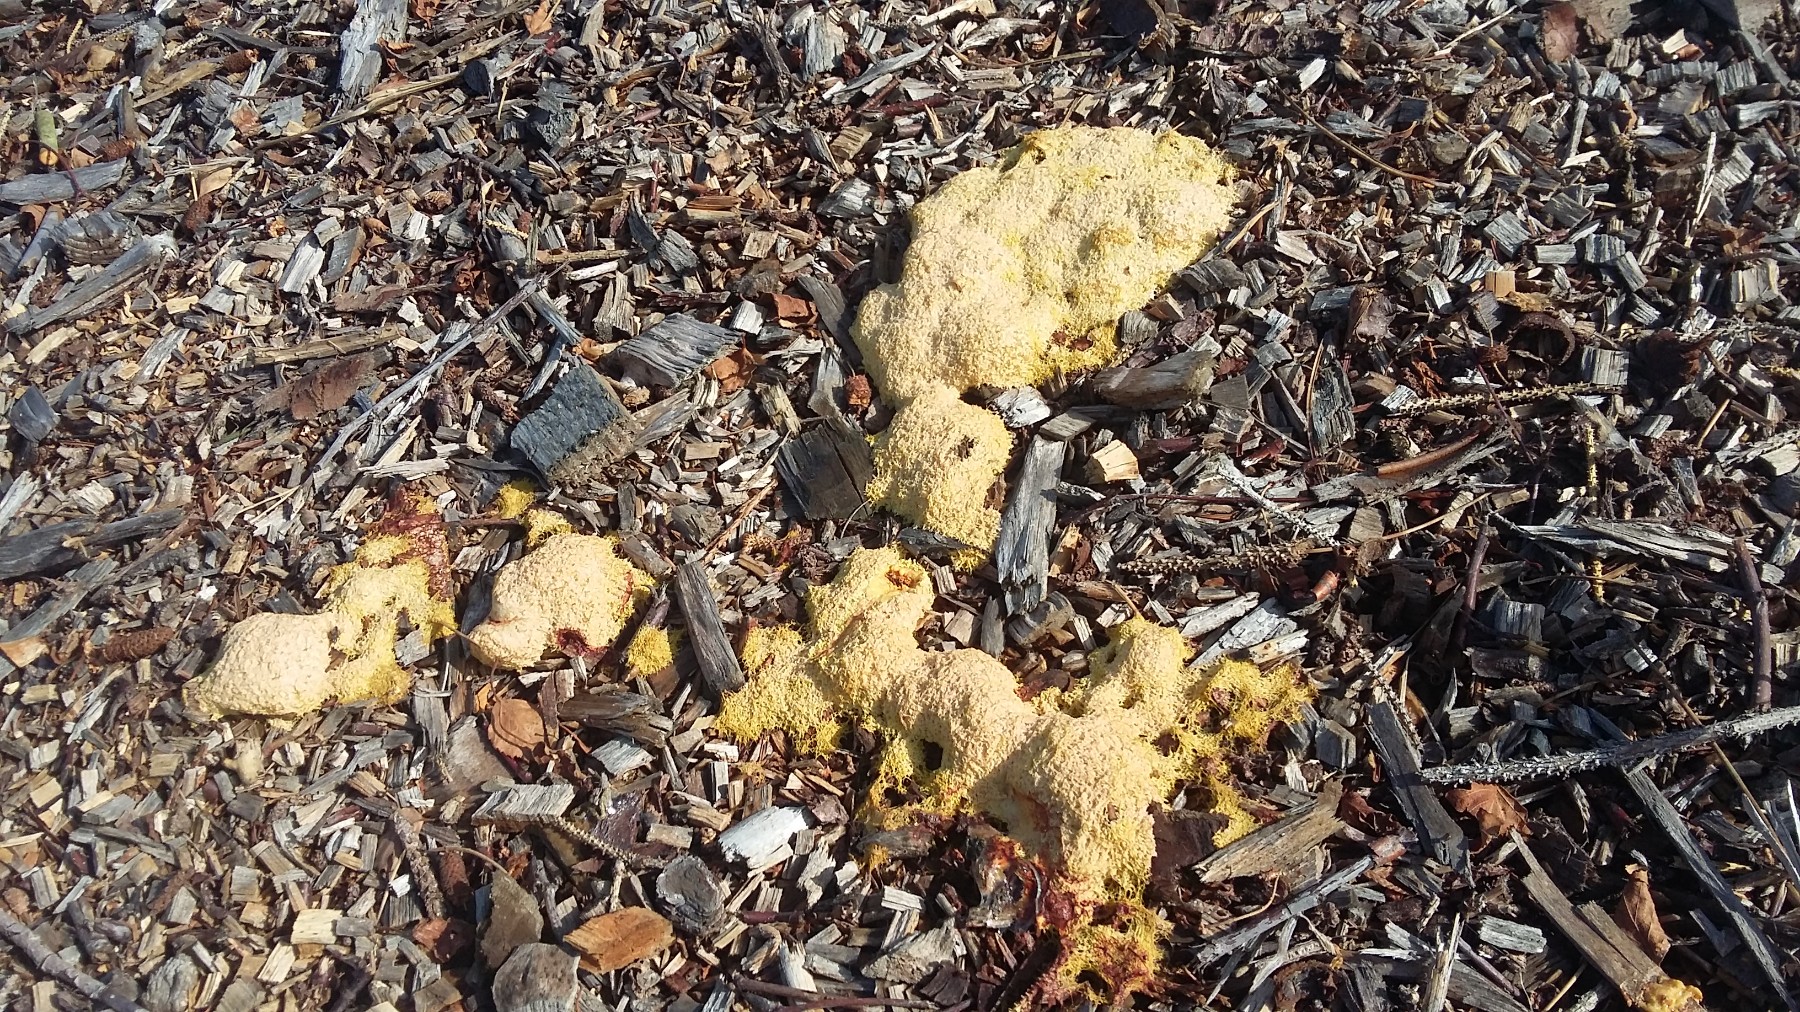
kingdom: Protozoa
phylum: Mycetozoa
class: Myxomycetes
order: Physarales
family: Physaraceae
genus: Fuligo
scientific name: Fuligo septica
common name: gul troldsmør
